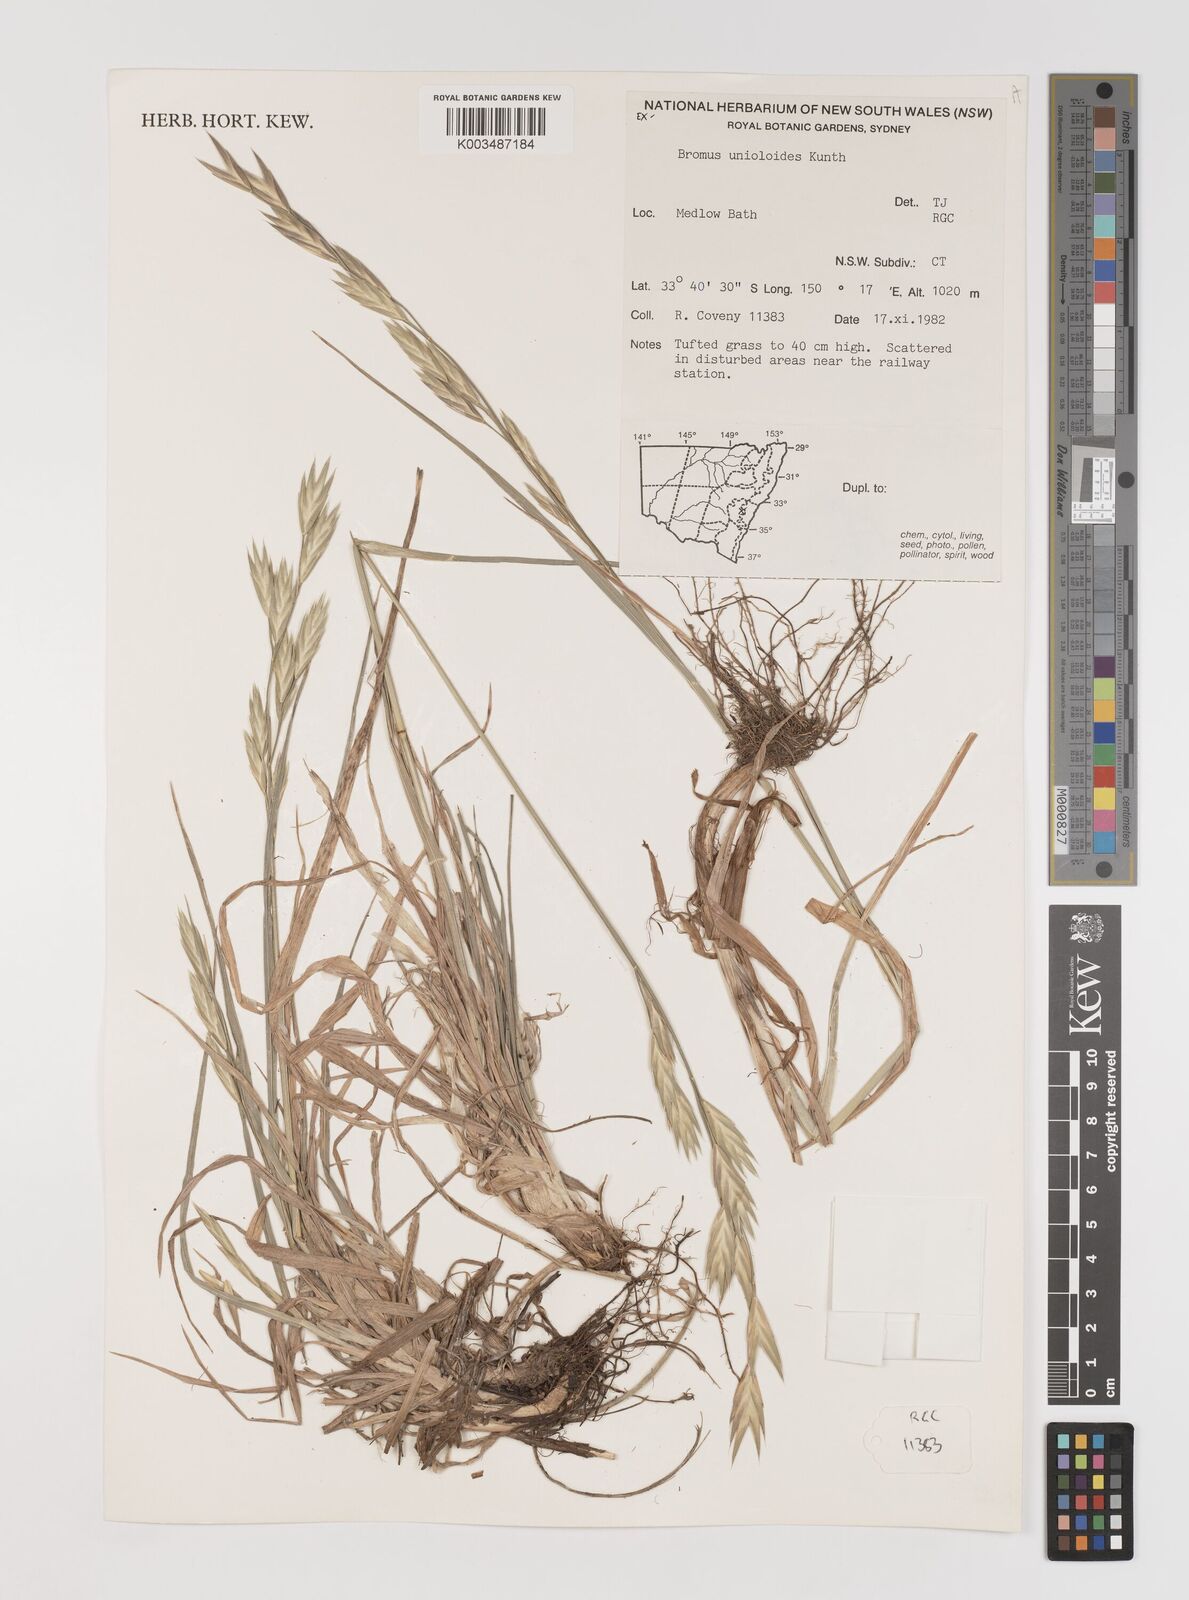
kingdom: Plantae
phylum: Tracheophyta
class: Liliopsida
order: Poales
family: Poaceae
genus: Bromus
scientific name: Bromus catharticus
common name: Rescuegrass
